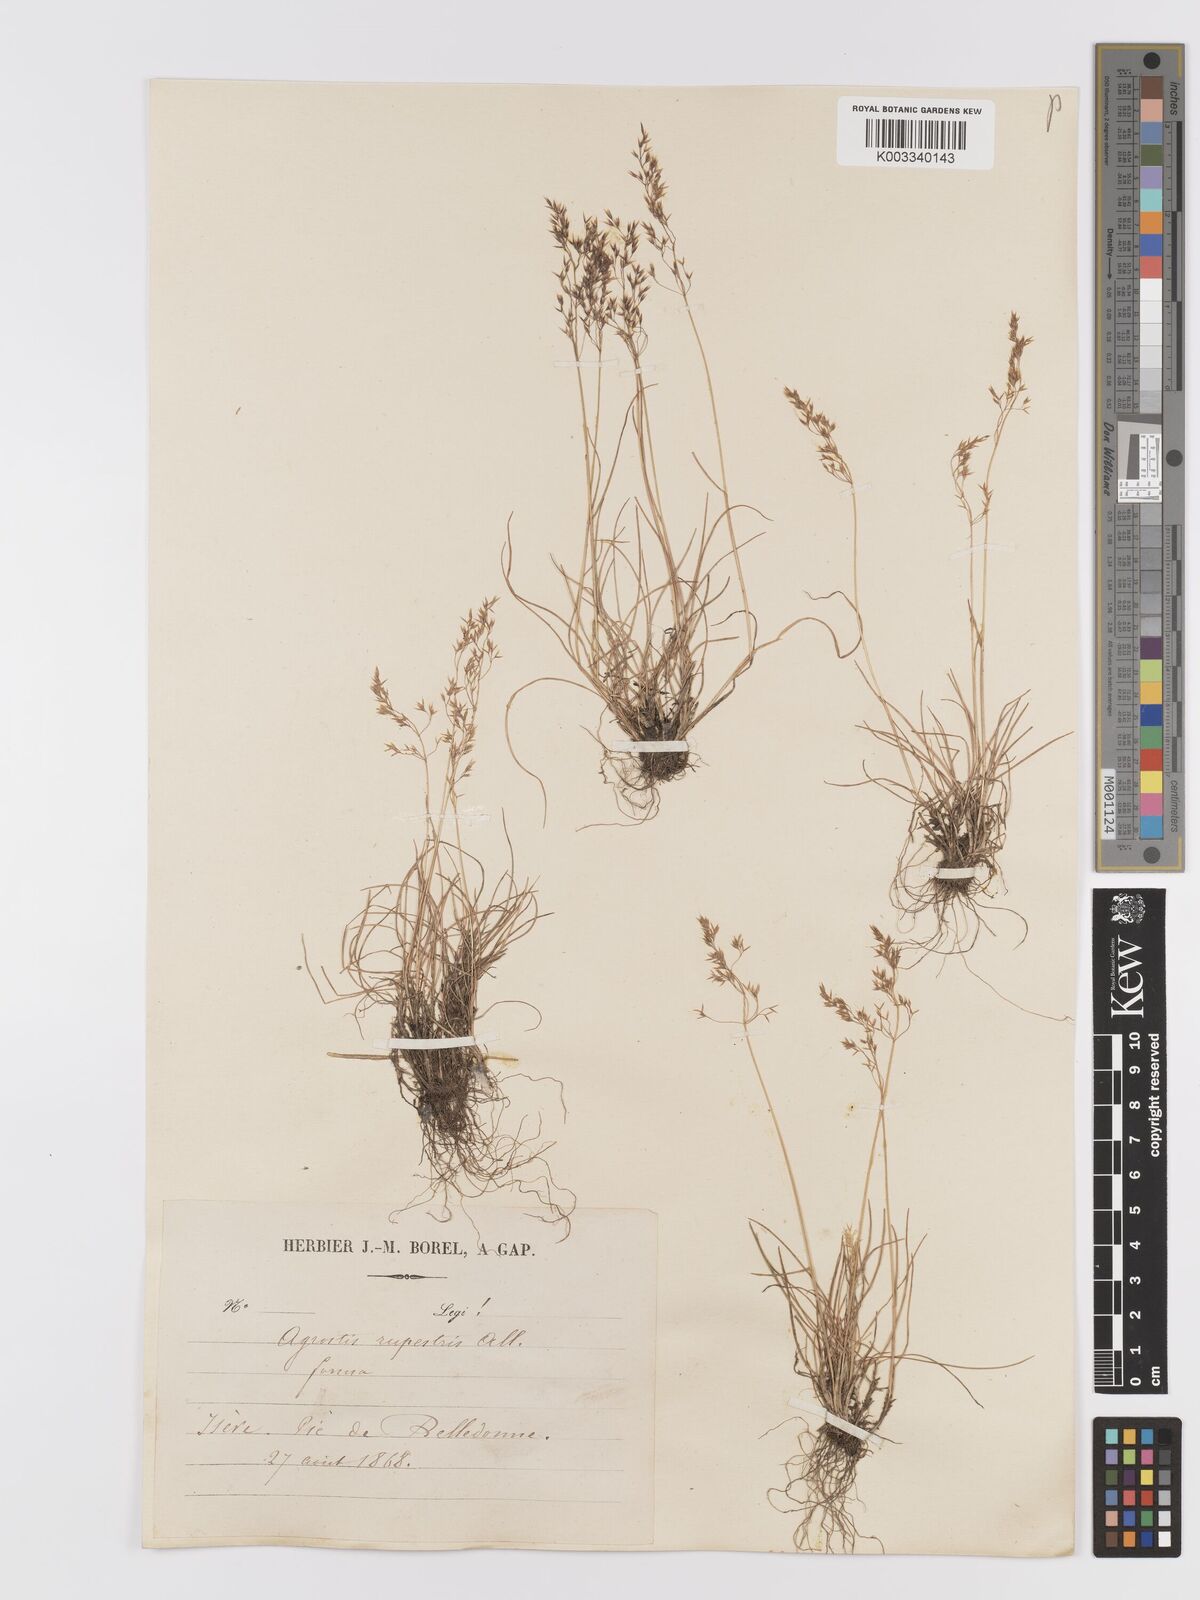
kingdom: Plantae
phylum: Tracheophyta
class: Liliopsida
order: Poales
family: Poaceae
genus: Agrostis
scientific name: Agrostis rupestris
